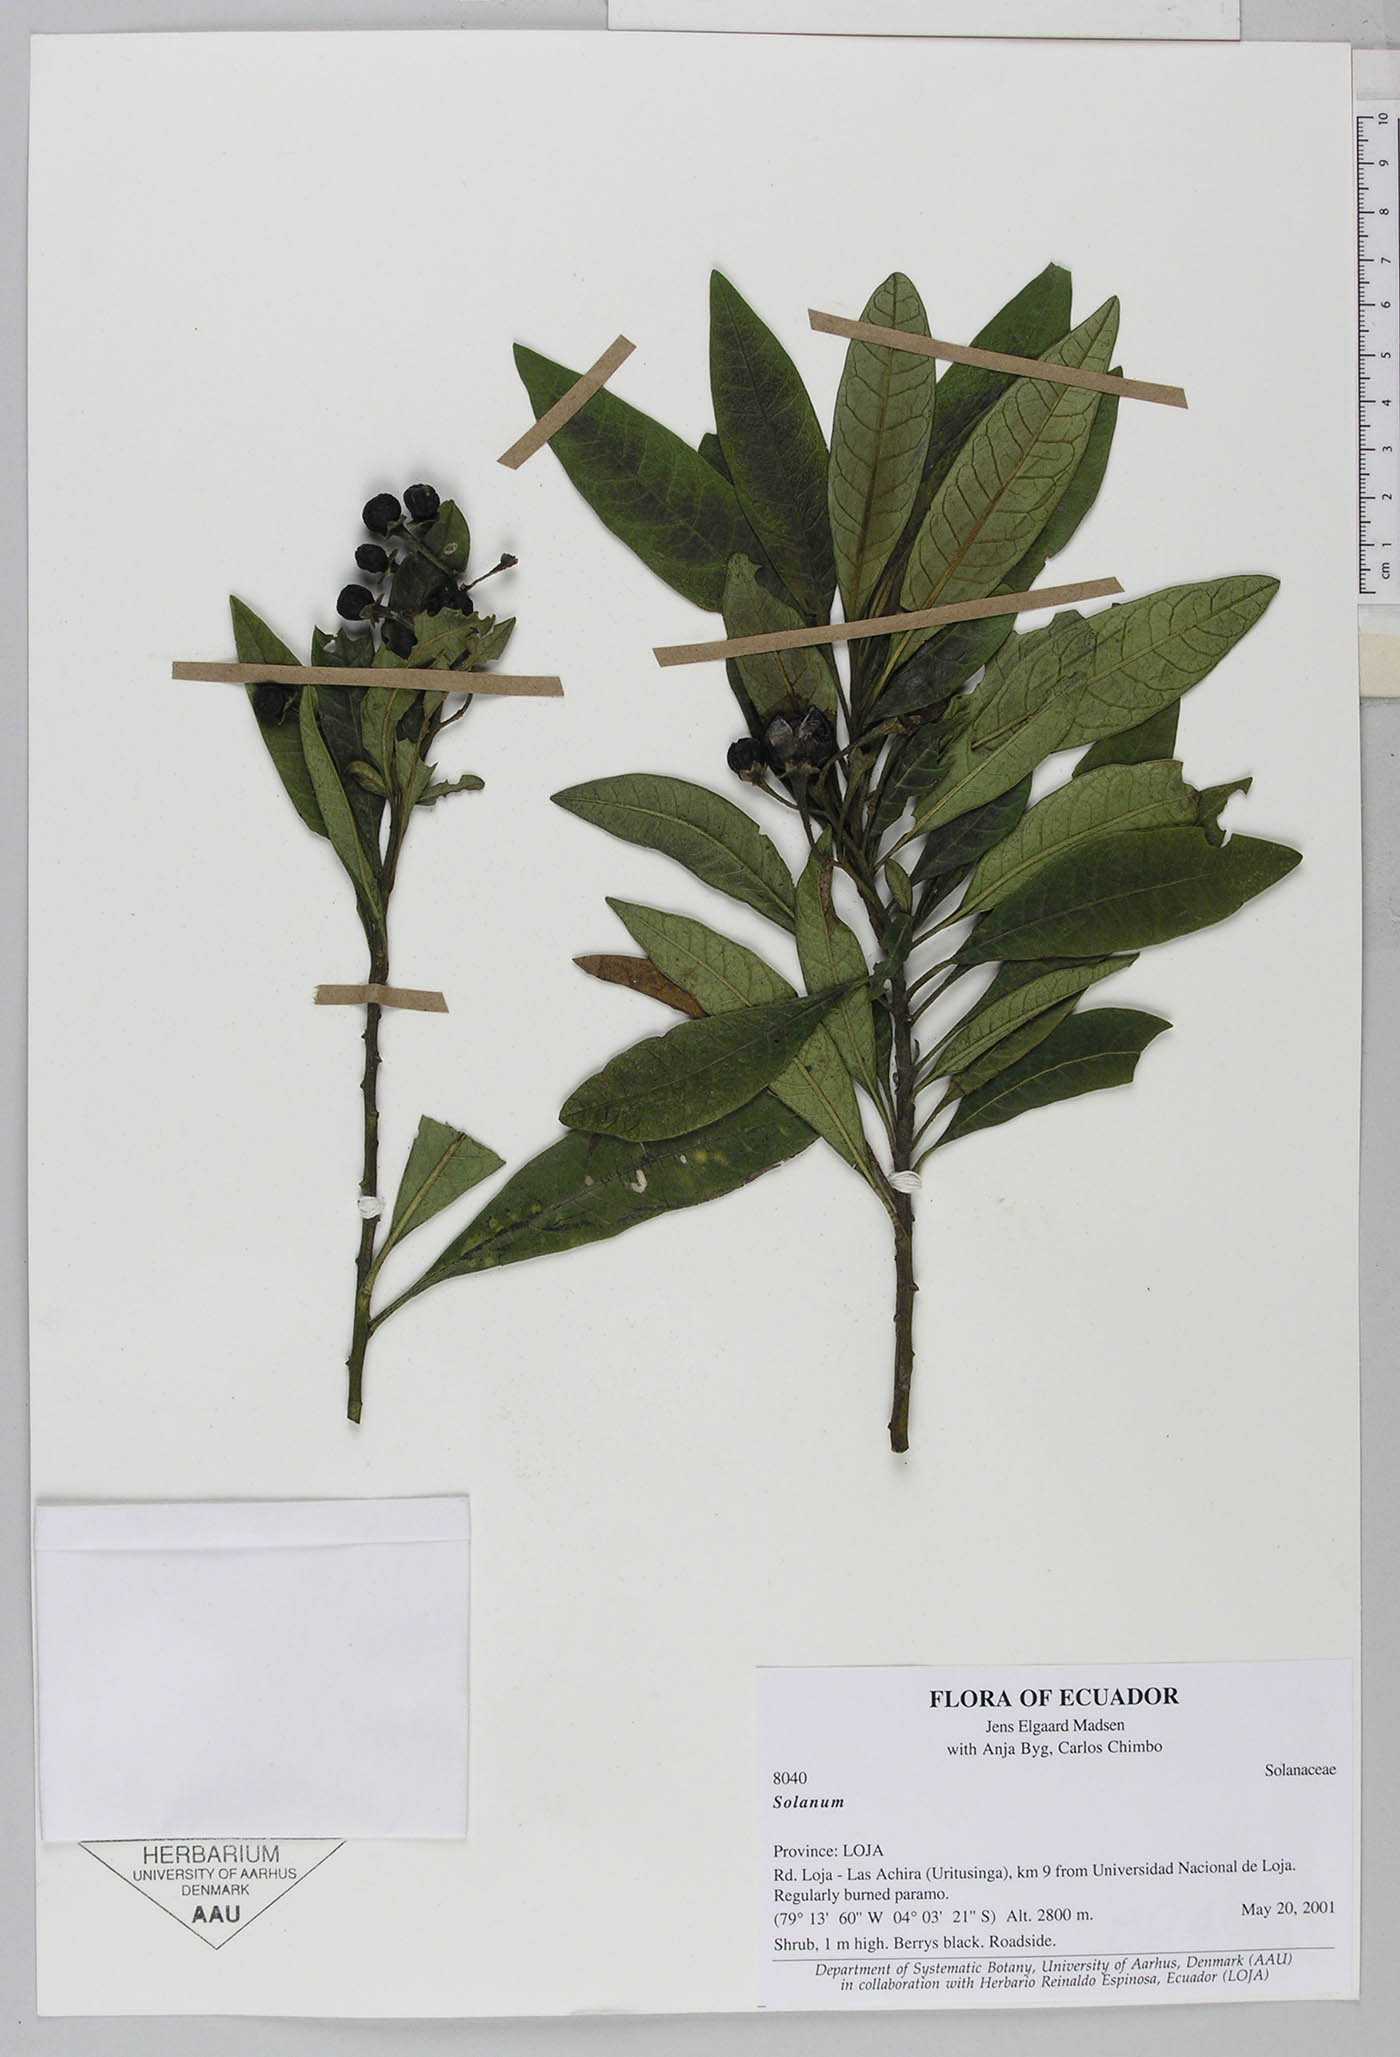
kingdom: Plantae
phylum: Tracheophyta
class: Magnoliopsida
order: Solanales
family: Solanaceae
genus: Solanum
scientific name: Solanum stenophyllum
